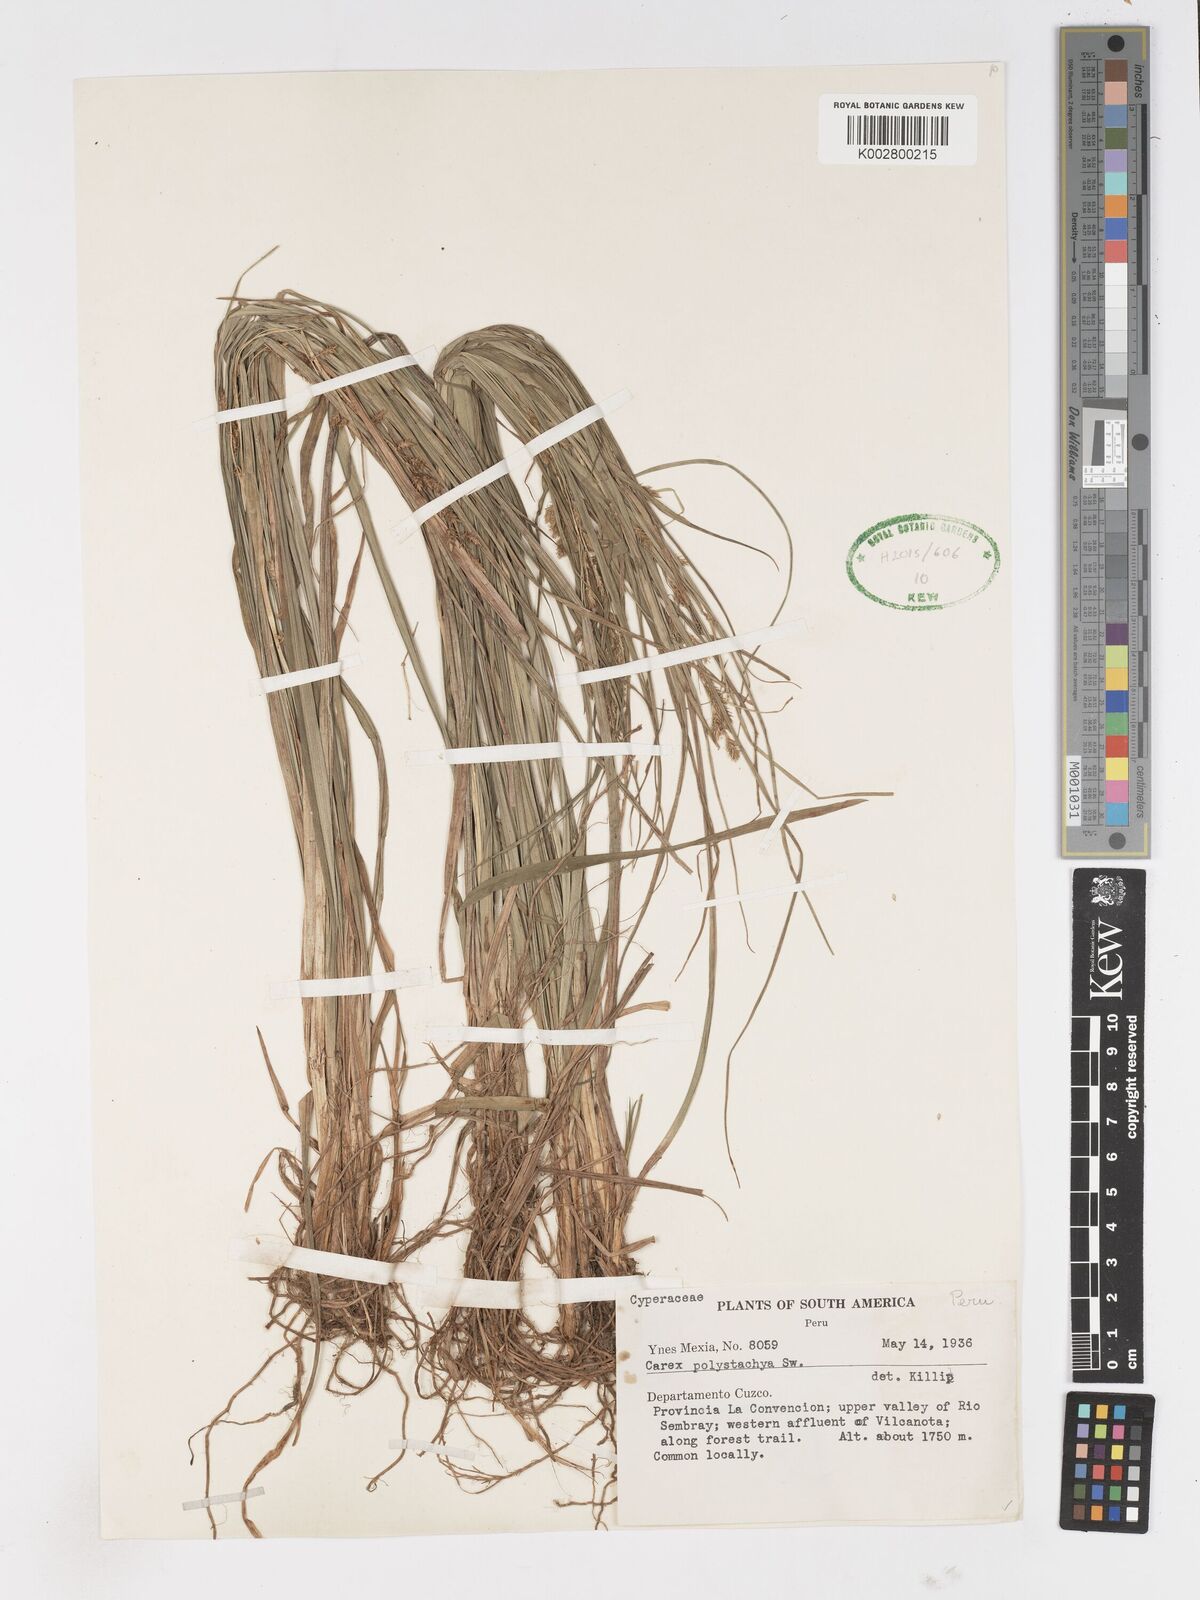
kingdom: Plantae
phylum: Tracheophyta
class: Liliopsida
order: Poales
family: Cyperaceae
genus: Carex
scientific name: Carex polysticha
